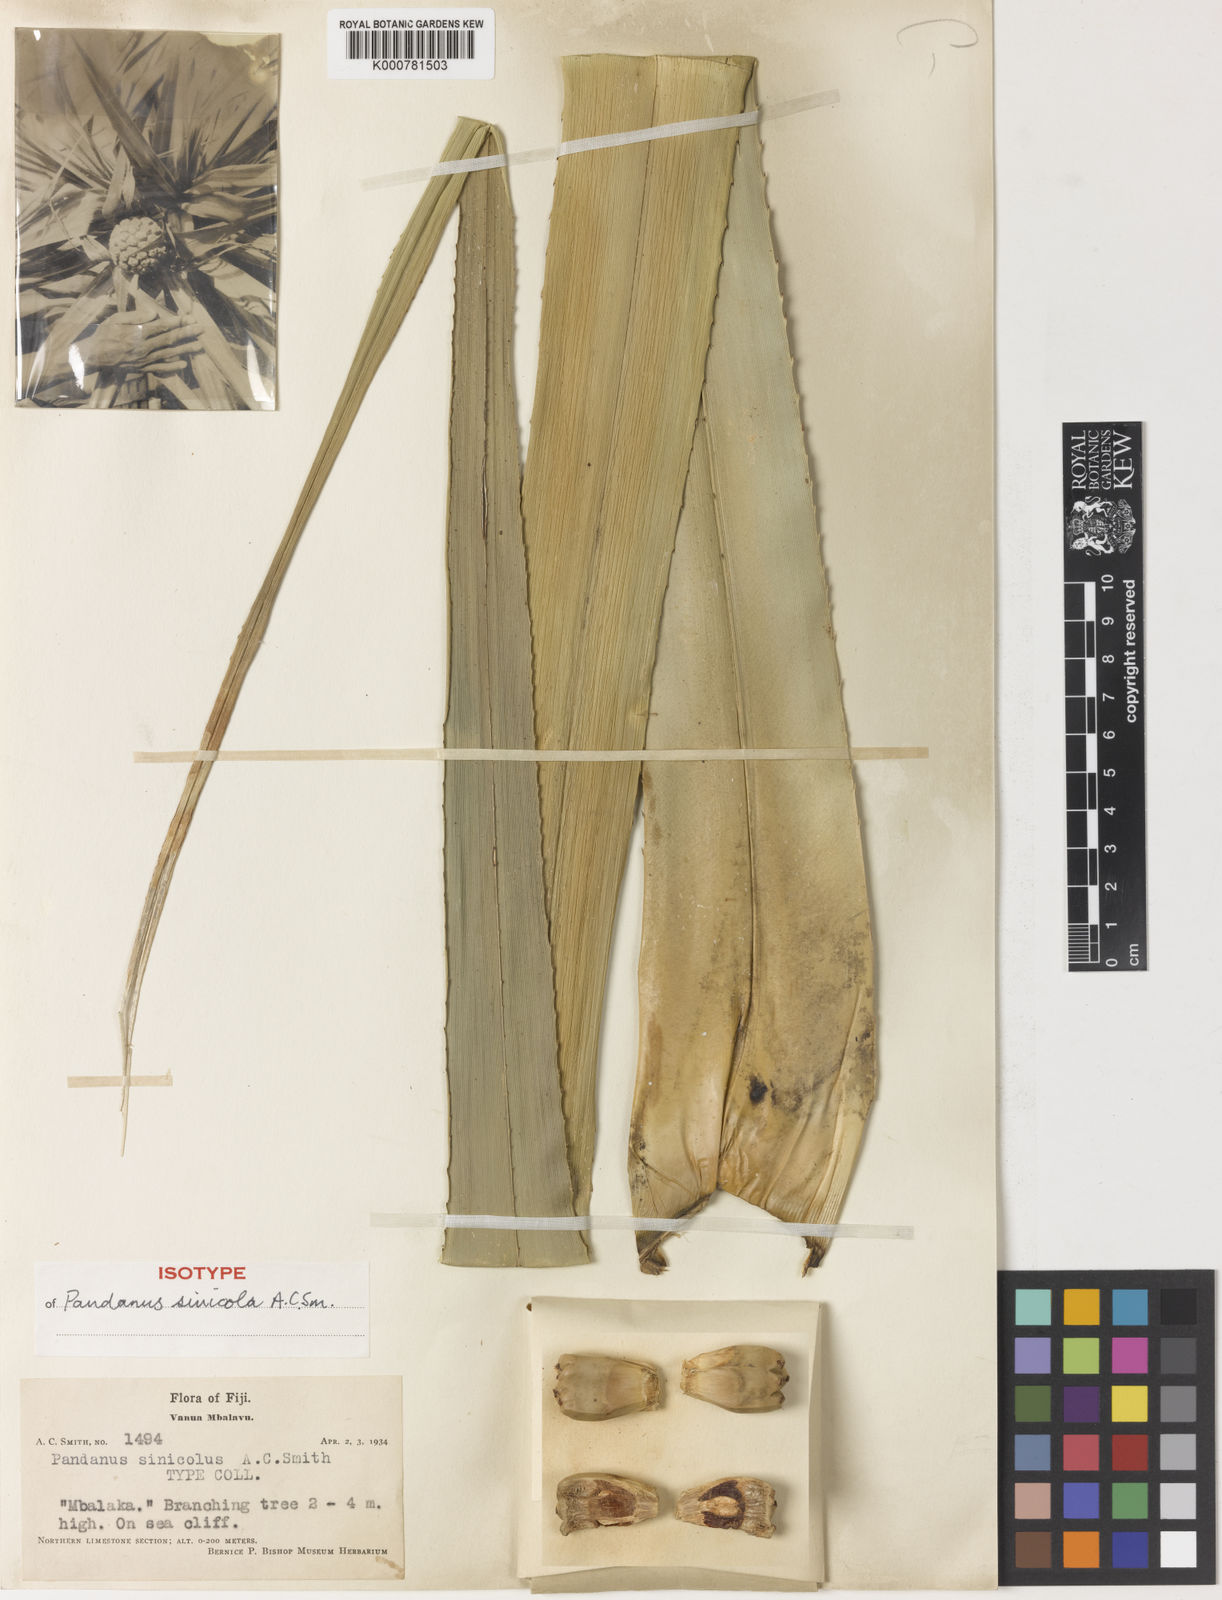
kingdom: Plantae
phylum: Tracheophyta
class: Liliopsida
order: Pandanales
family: Pandanaceae
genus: Pandanus
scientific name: Pandanus sinicola
